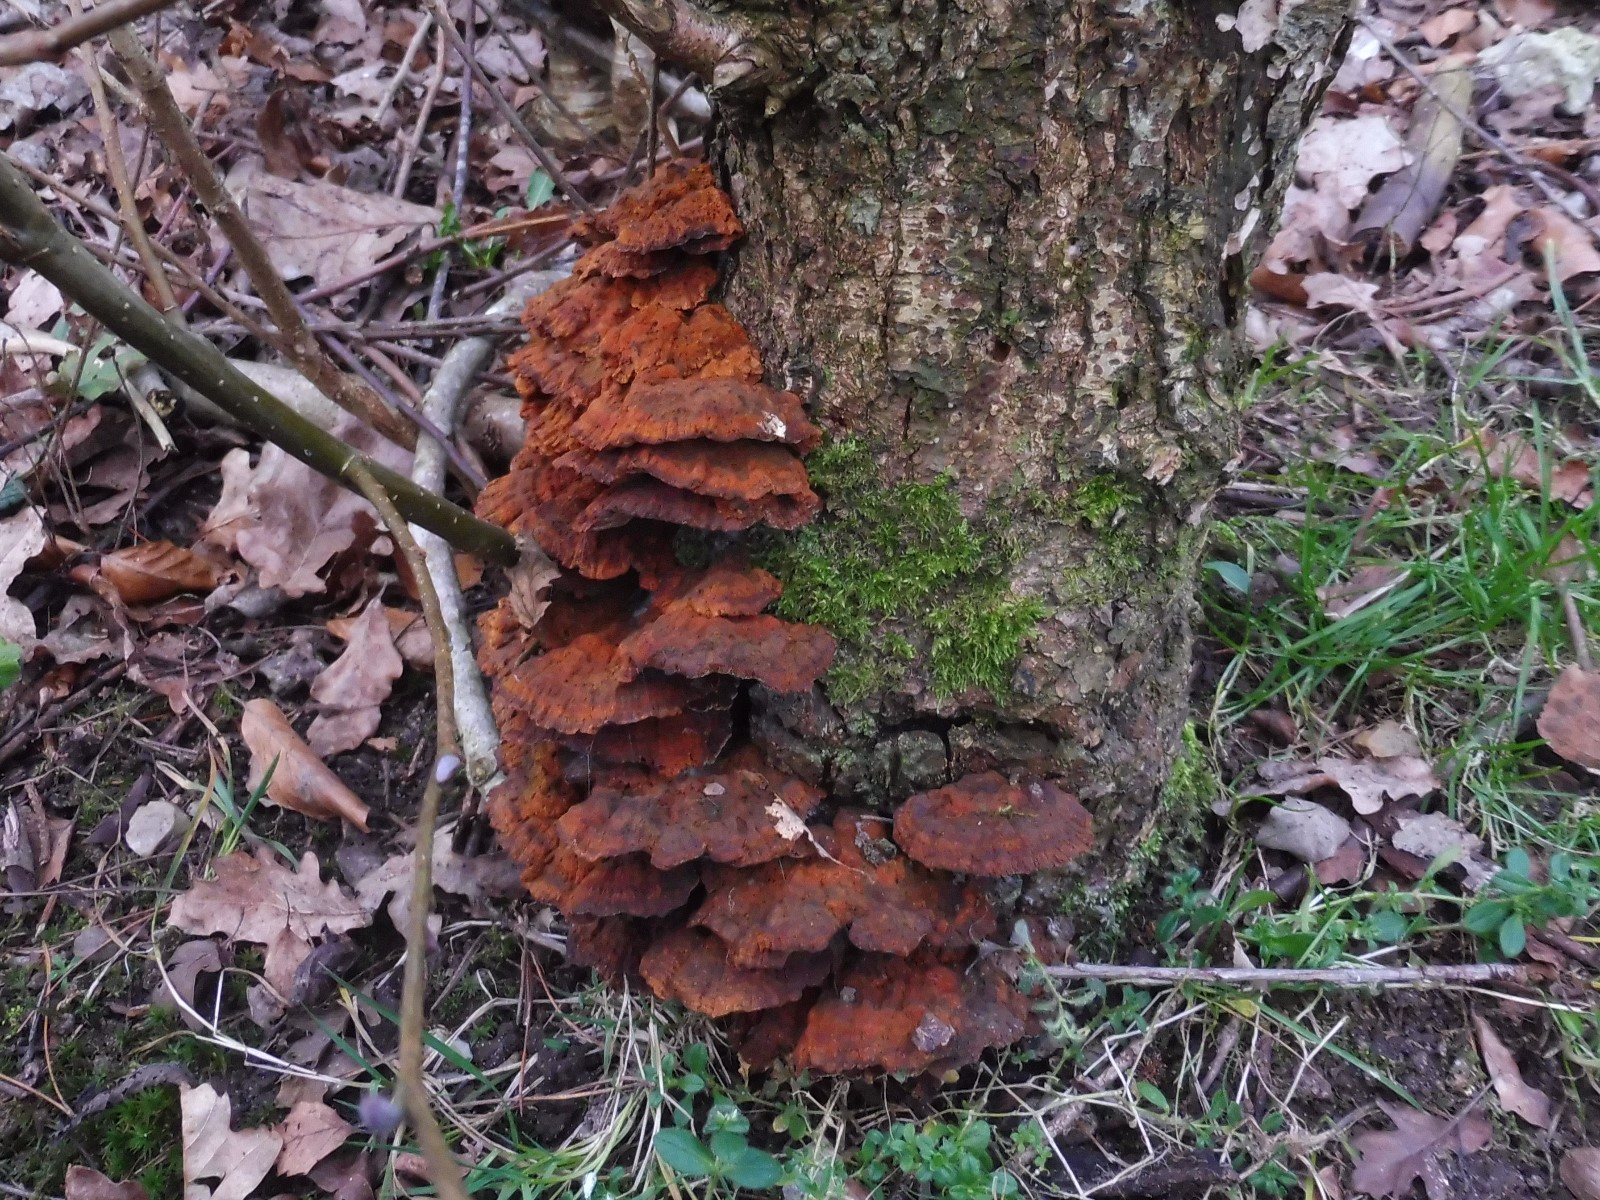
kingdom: Fungi
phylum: Basidiomycota
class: Agaricomycetes
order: Hymenochaetales
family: Hymenochaetaceae
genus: Xanthoporia
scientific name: Xanthoporia radiata
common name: elle-spejlporesvamp
